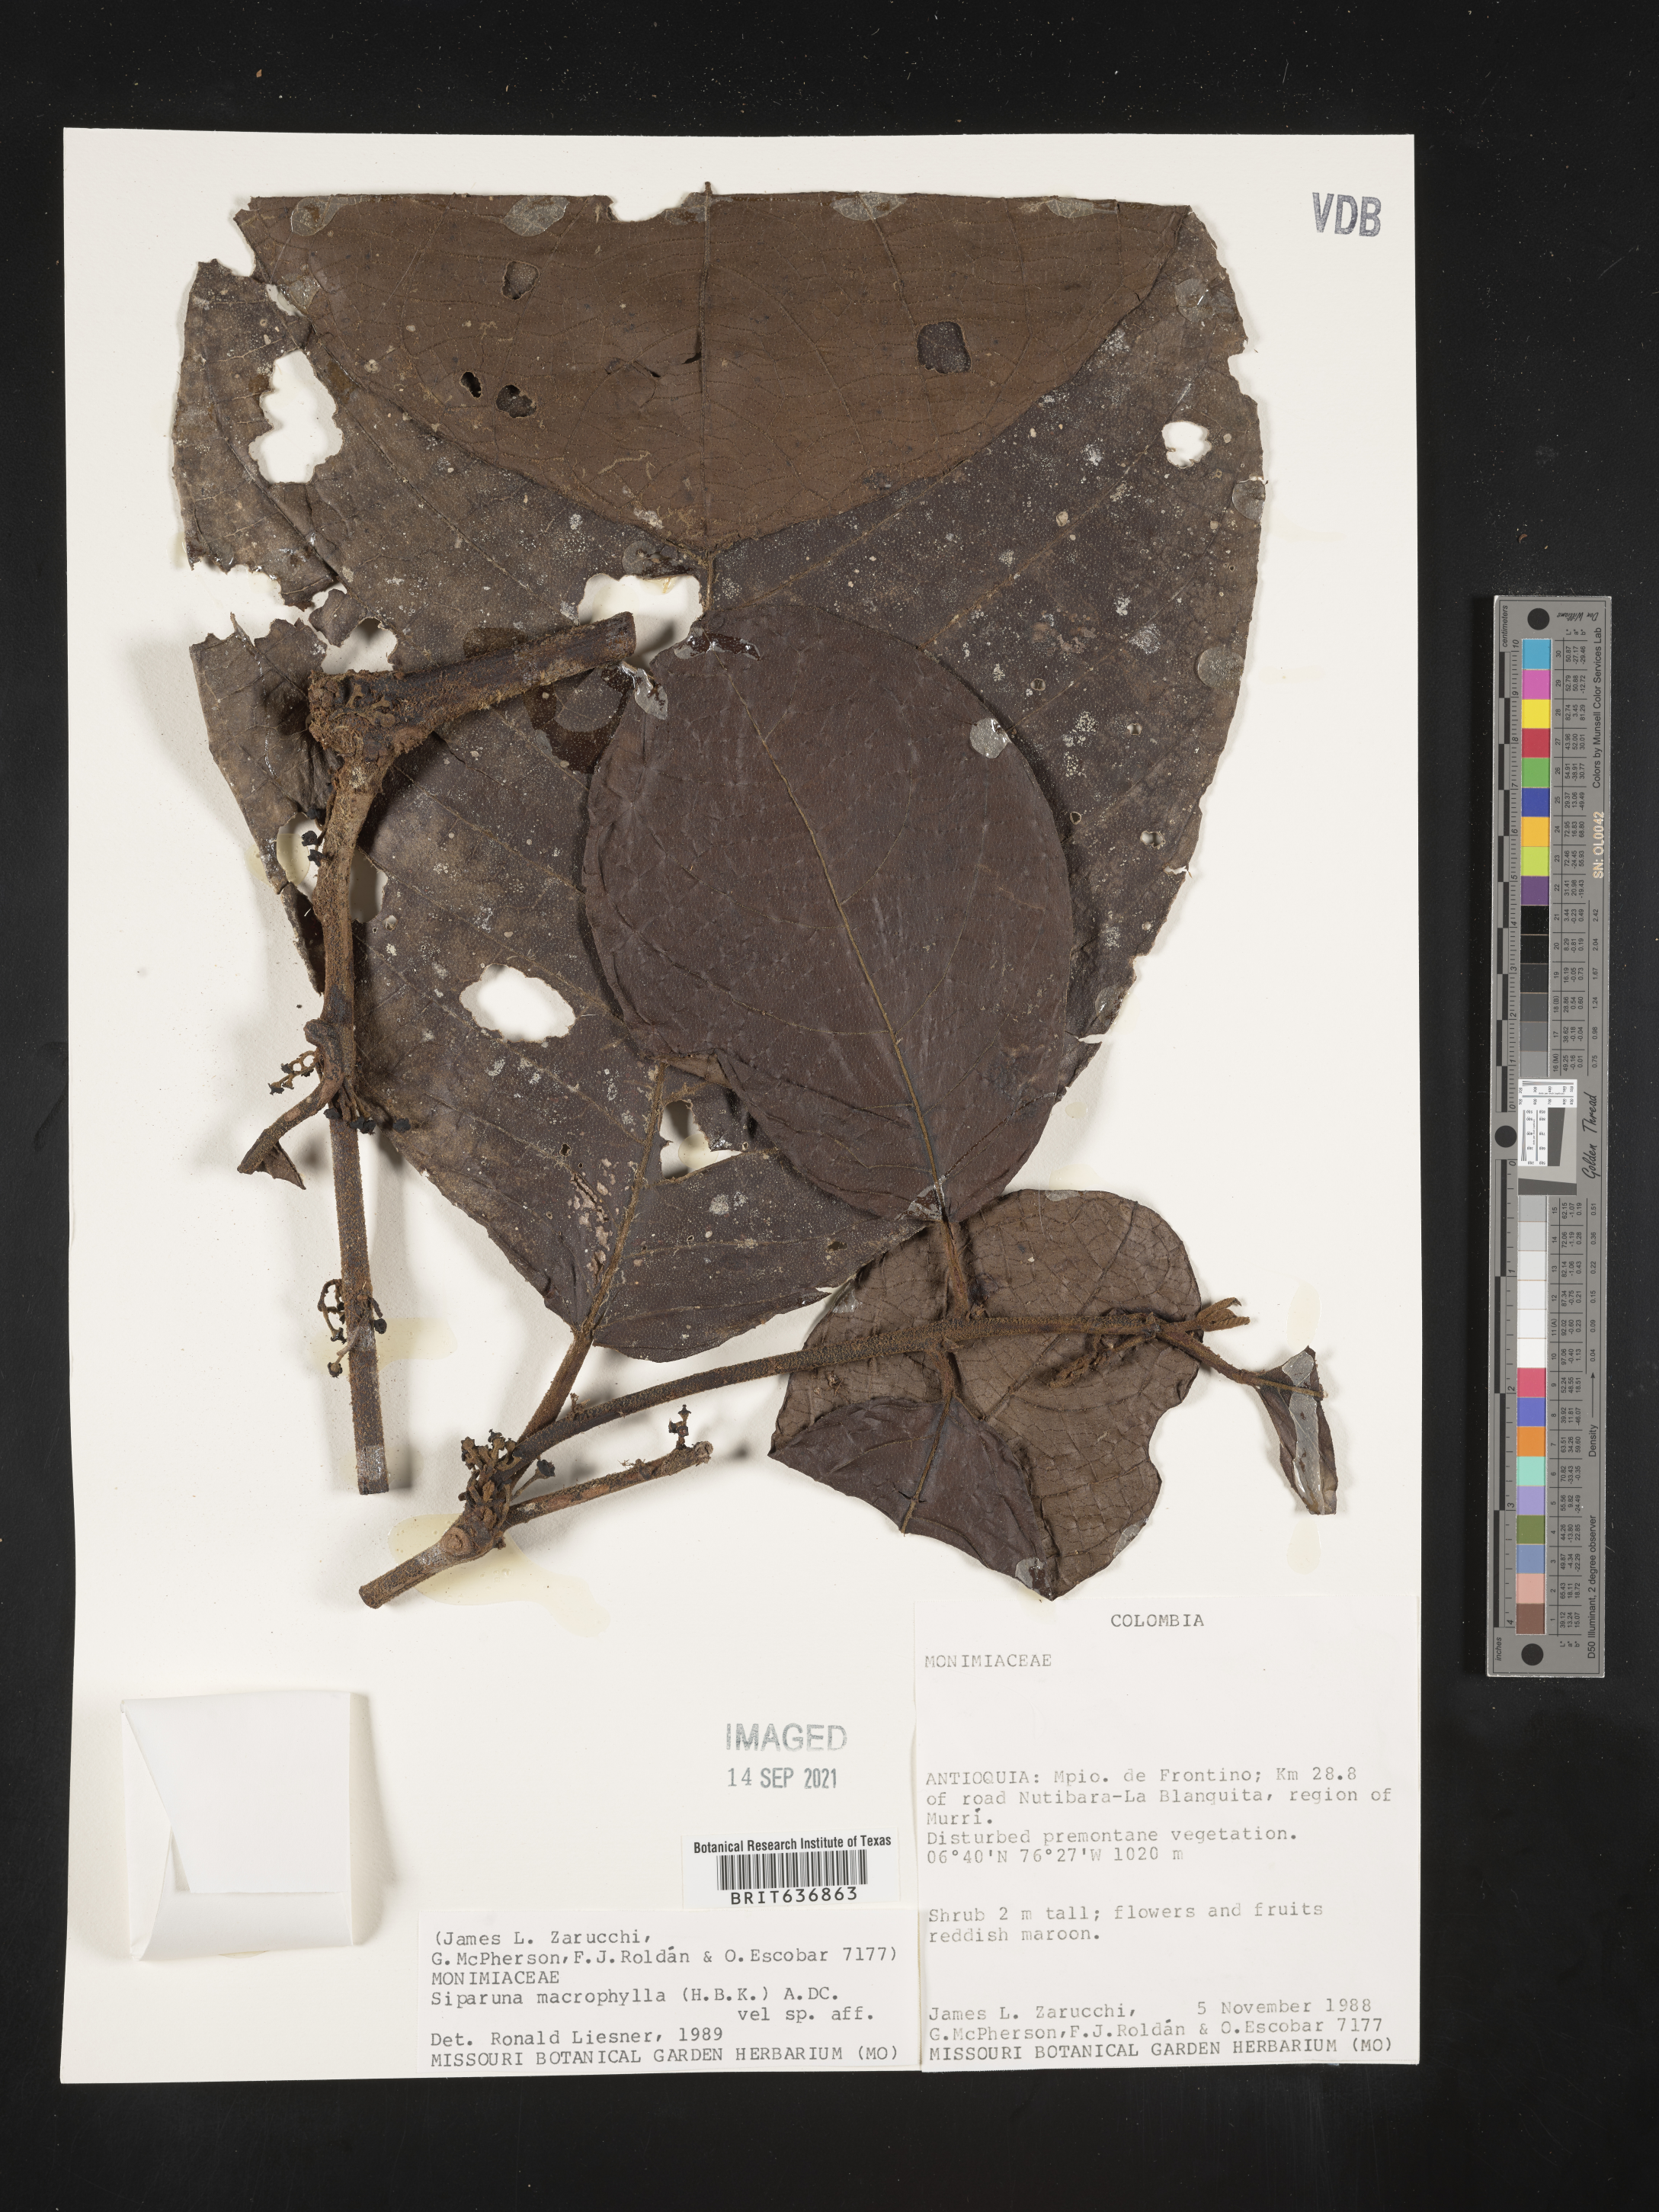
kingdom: Plantae
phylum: Tracheophyta
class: Magnoliopsida
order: Laurales
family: Siparunaceae
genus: Siparuna
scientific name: Siparuna
